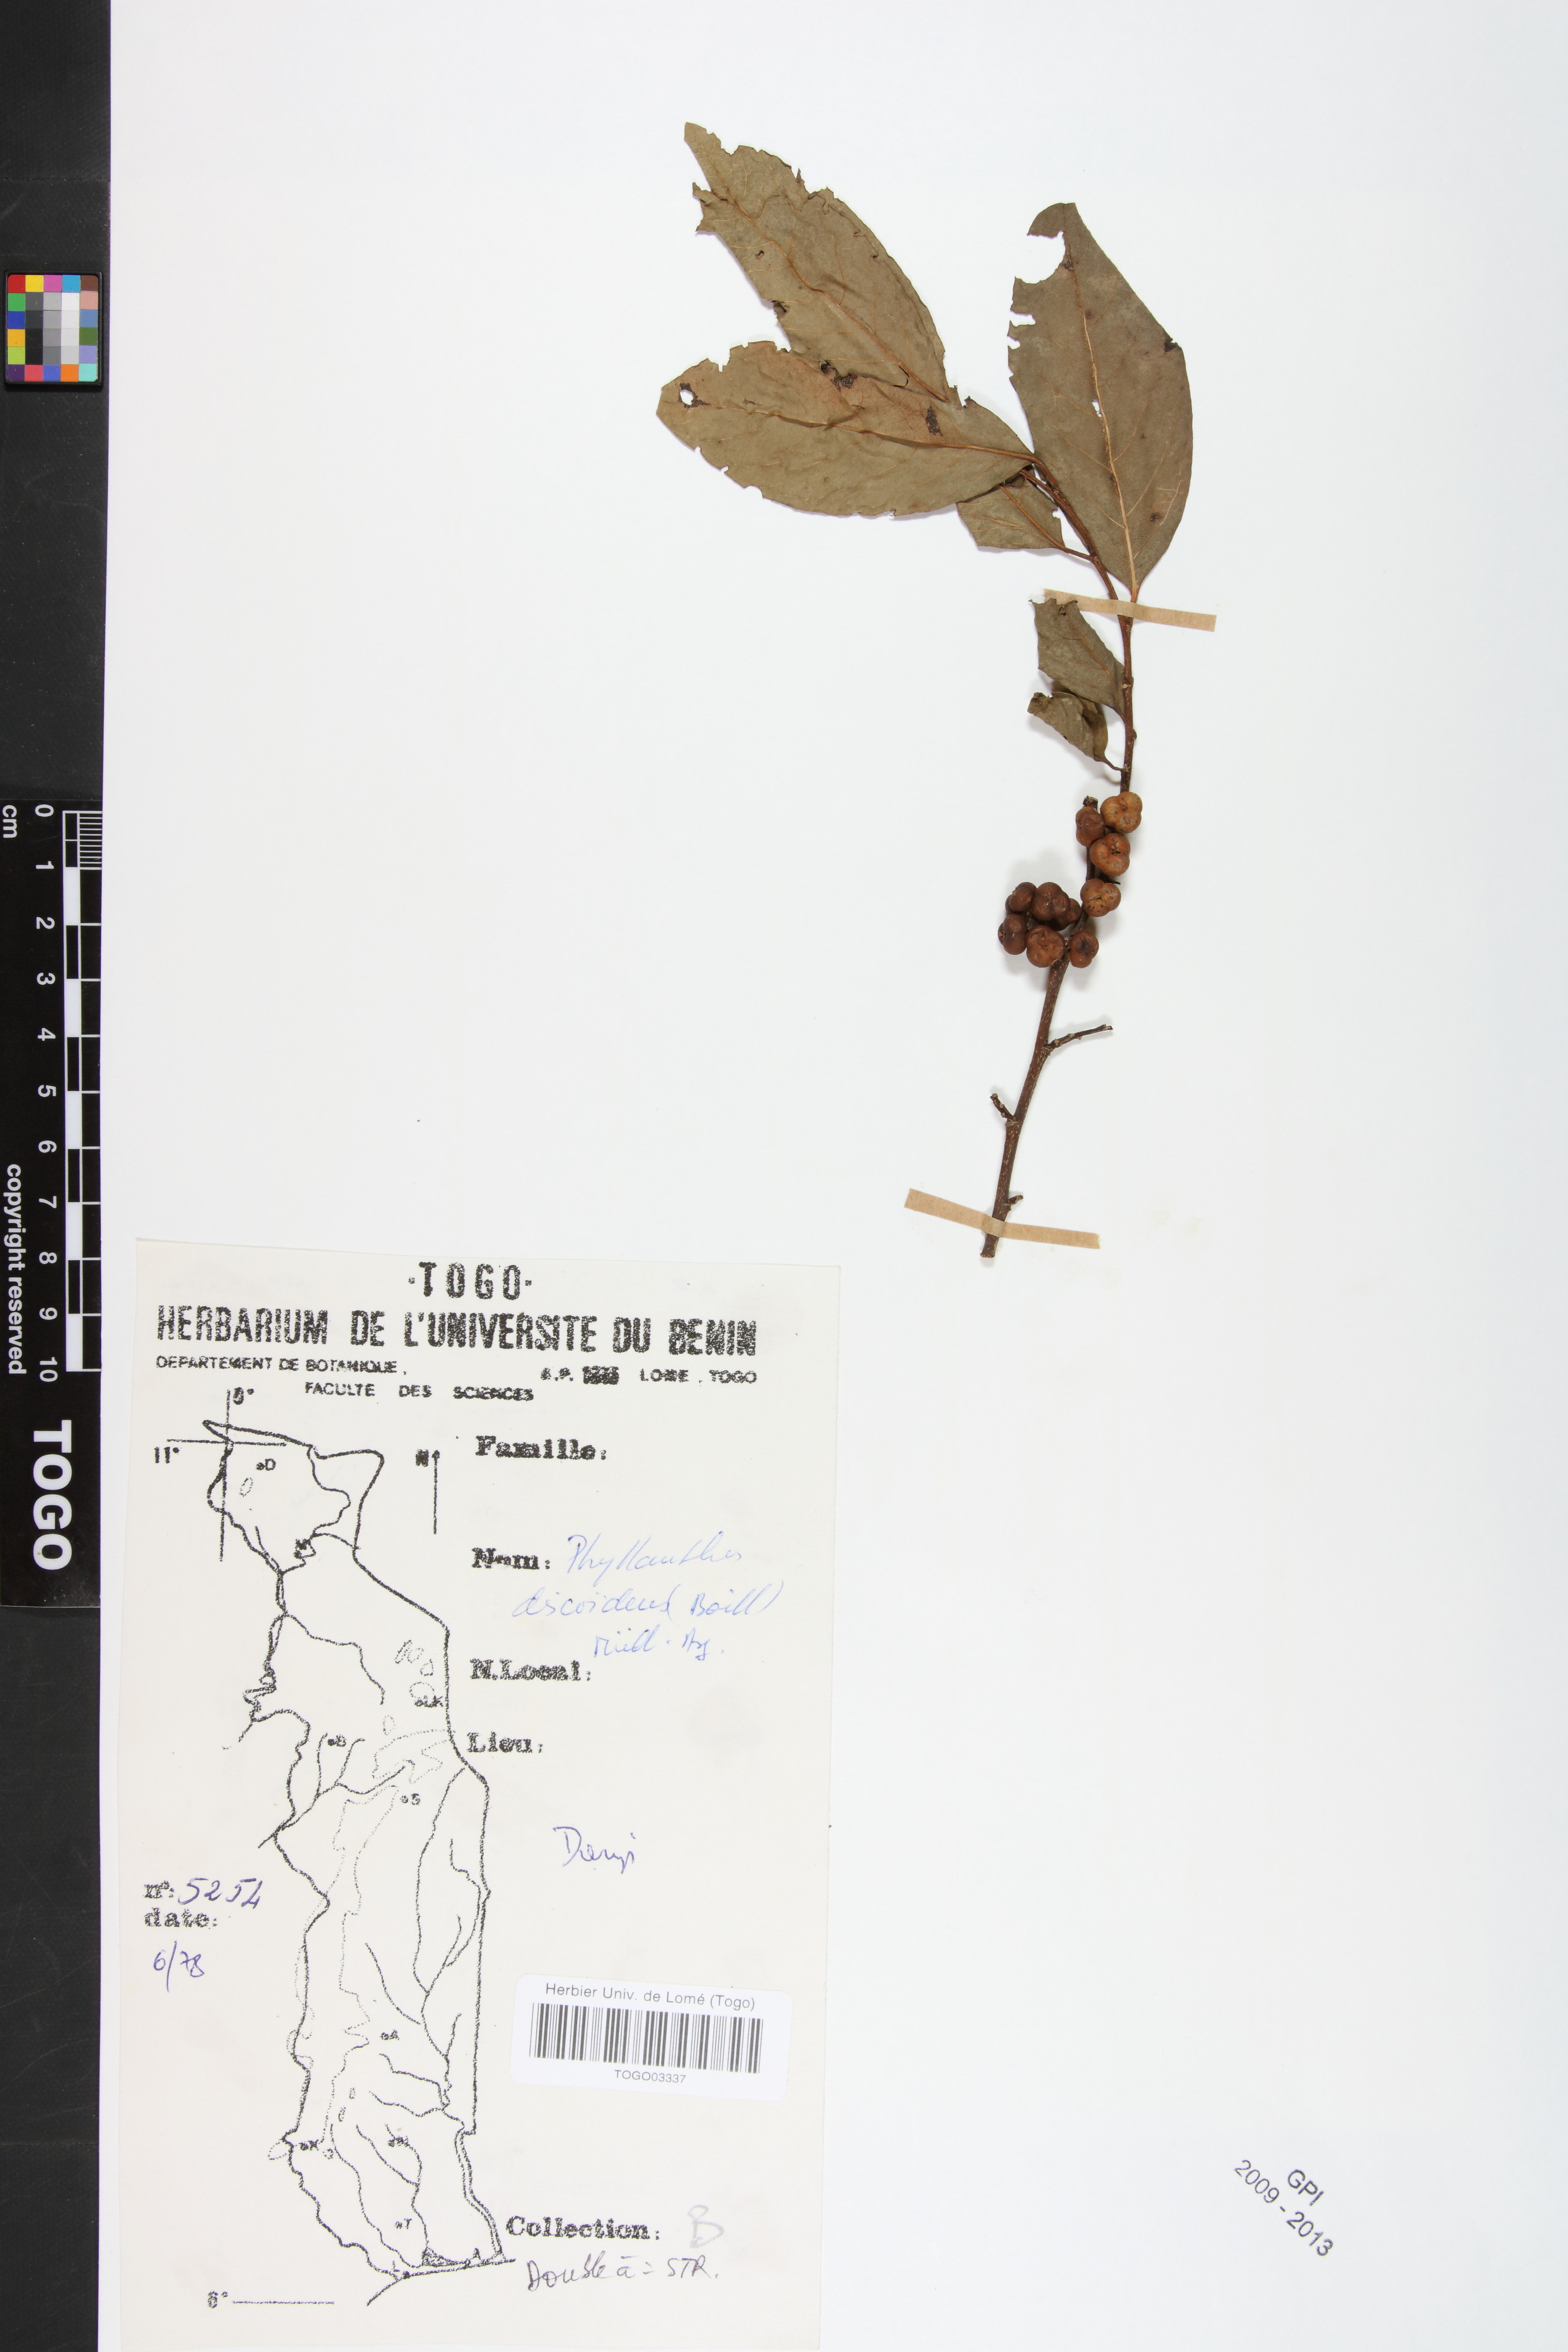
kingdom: Plantae
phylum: Tracheophyta
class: Magnoliopsida
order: Malpighiales
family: Phyllanthaceae
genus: Margaritaria
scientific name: Margaritaria discoidea
